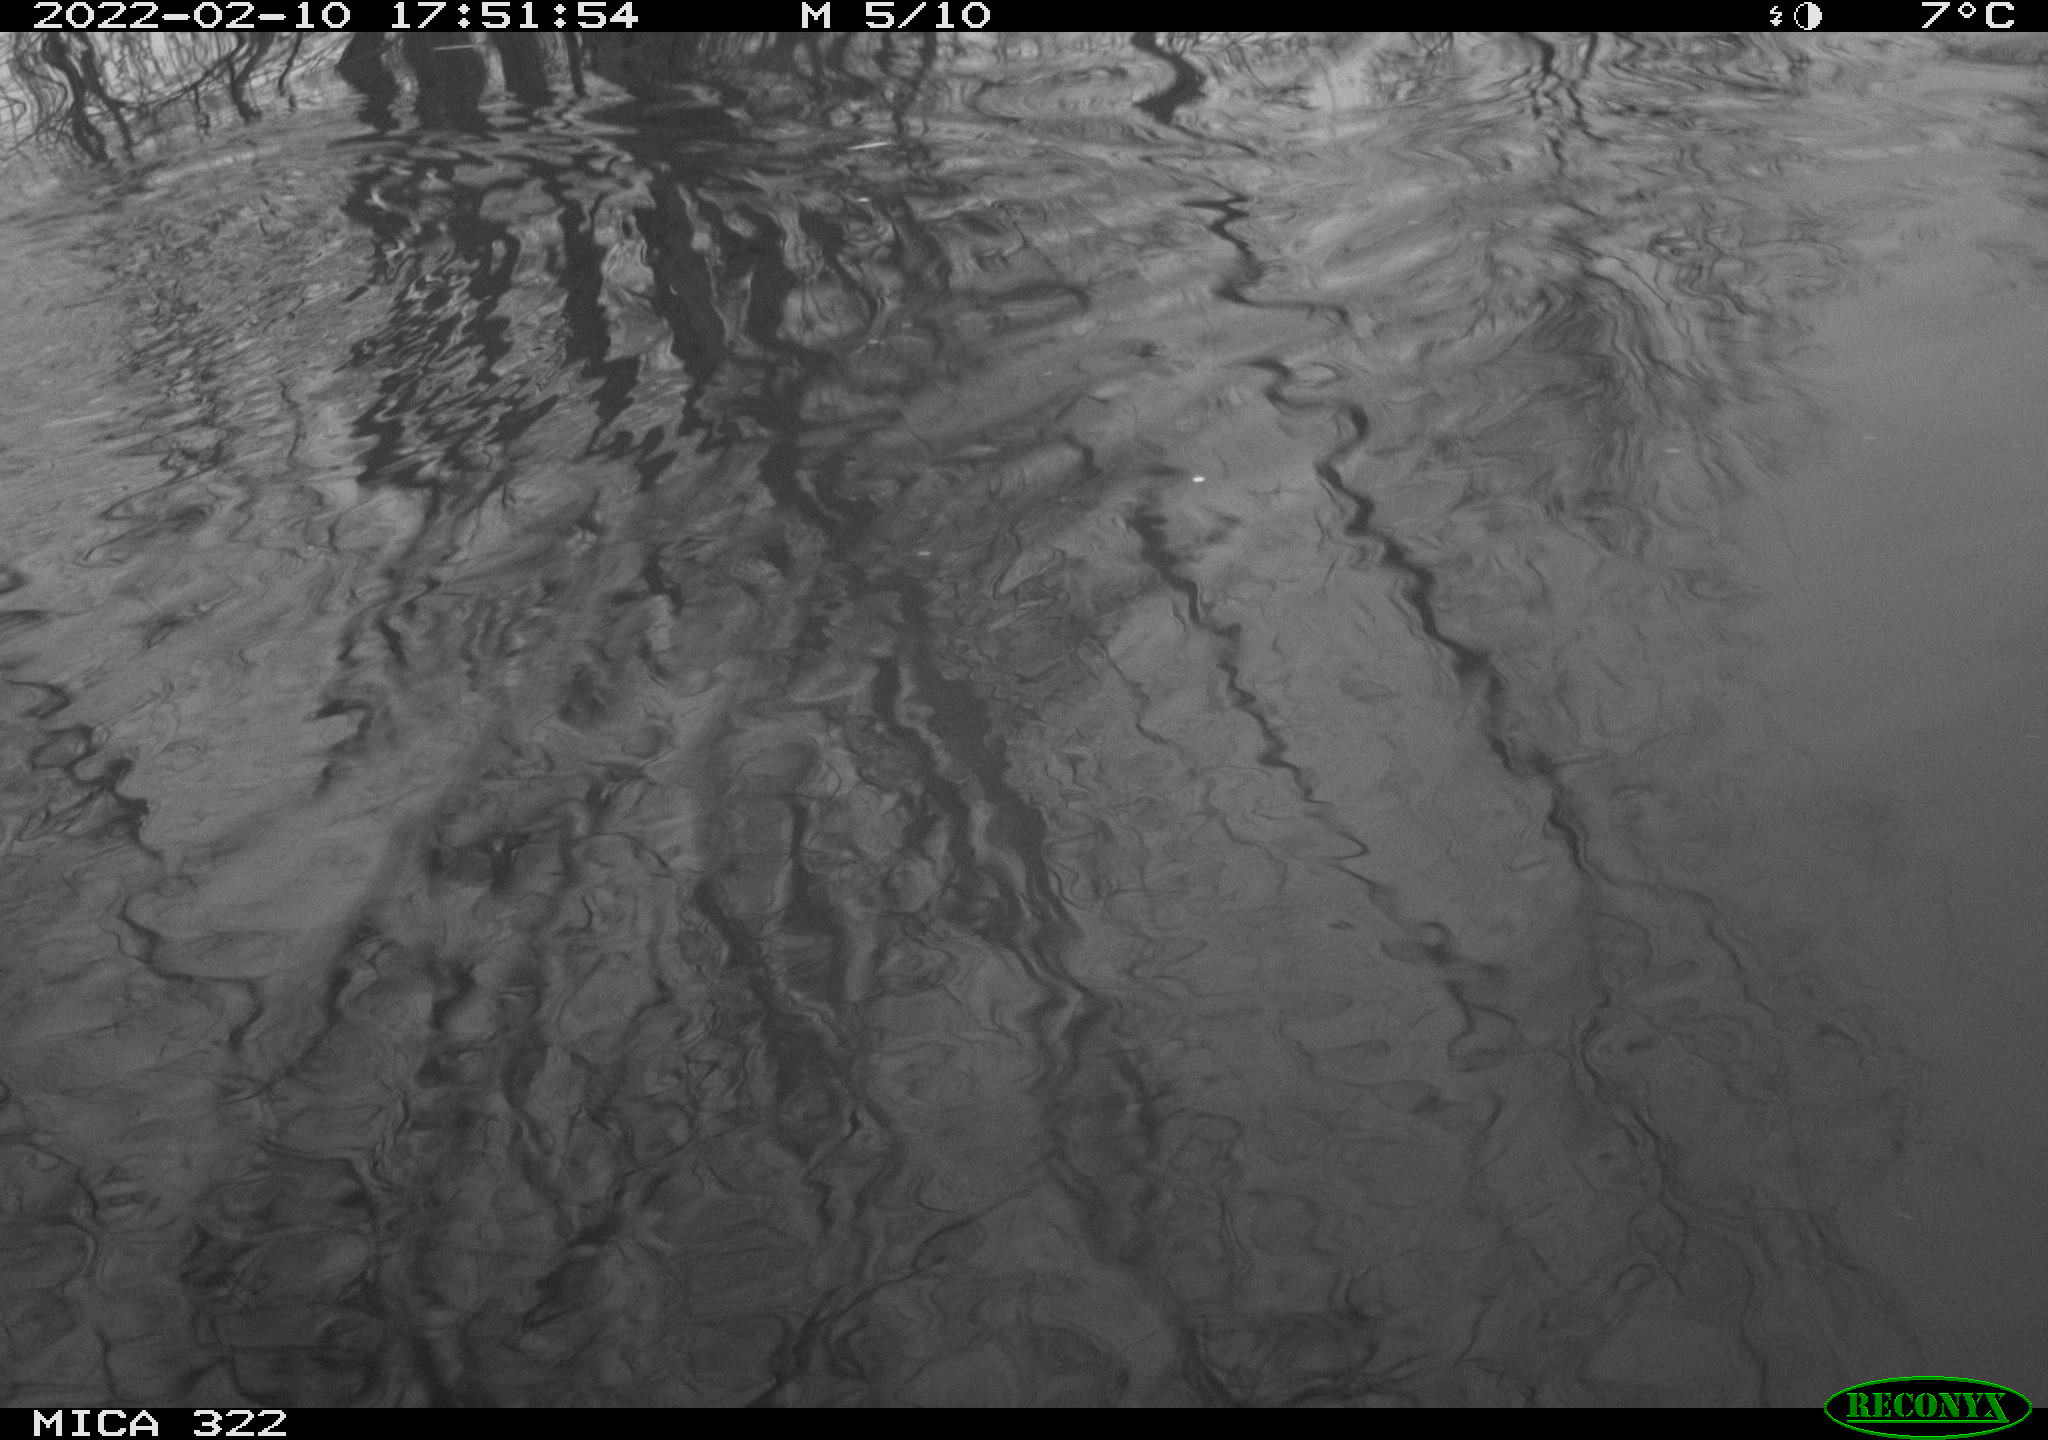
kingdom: Animalia
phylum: Chordata
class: Aves
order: Gruiformes
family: Rallidae
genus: Gallinula
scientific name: Gallinula chloropus
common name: Common moorhen
